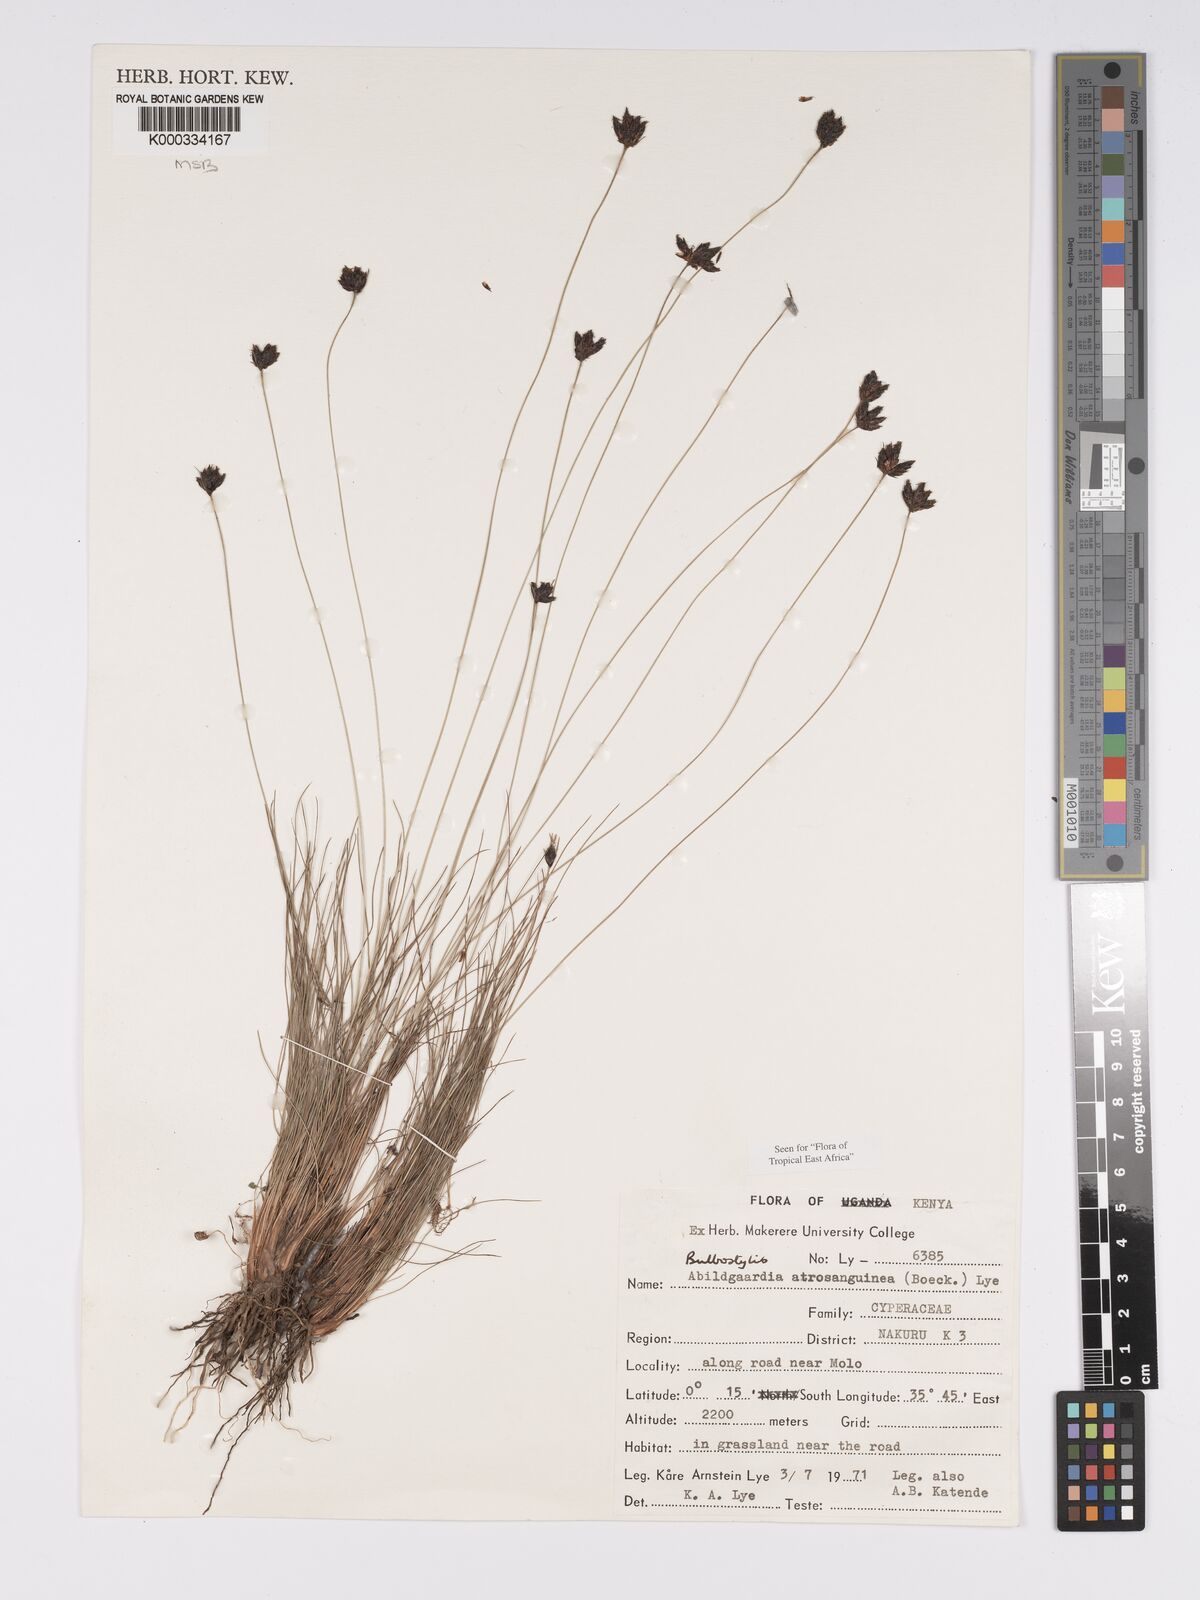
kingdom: Plantae
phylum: Tracheophyta
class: Liliopsida
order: Poales
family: Cyperaceae
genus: Bulbostylis
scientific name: Bulbostylis atrosanguinea
